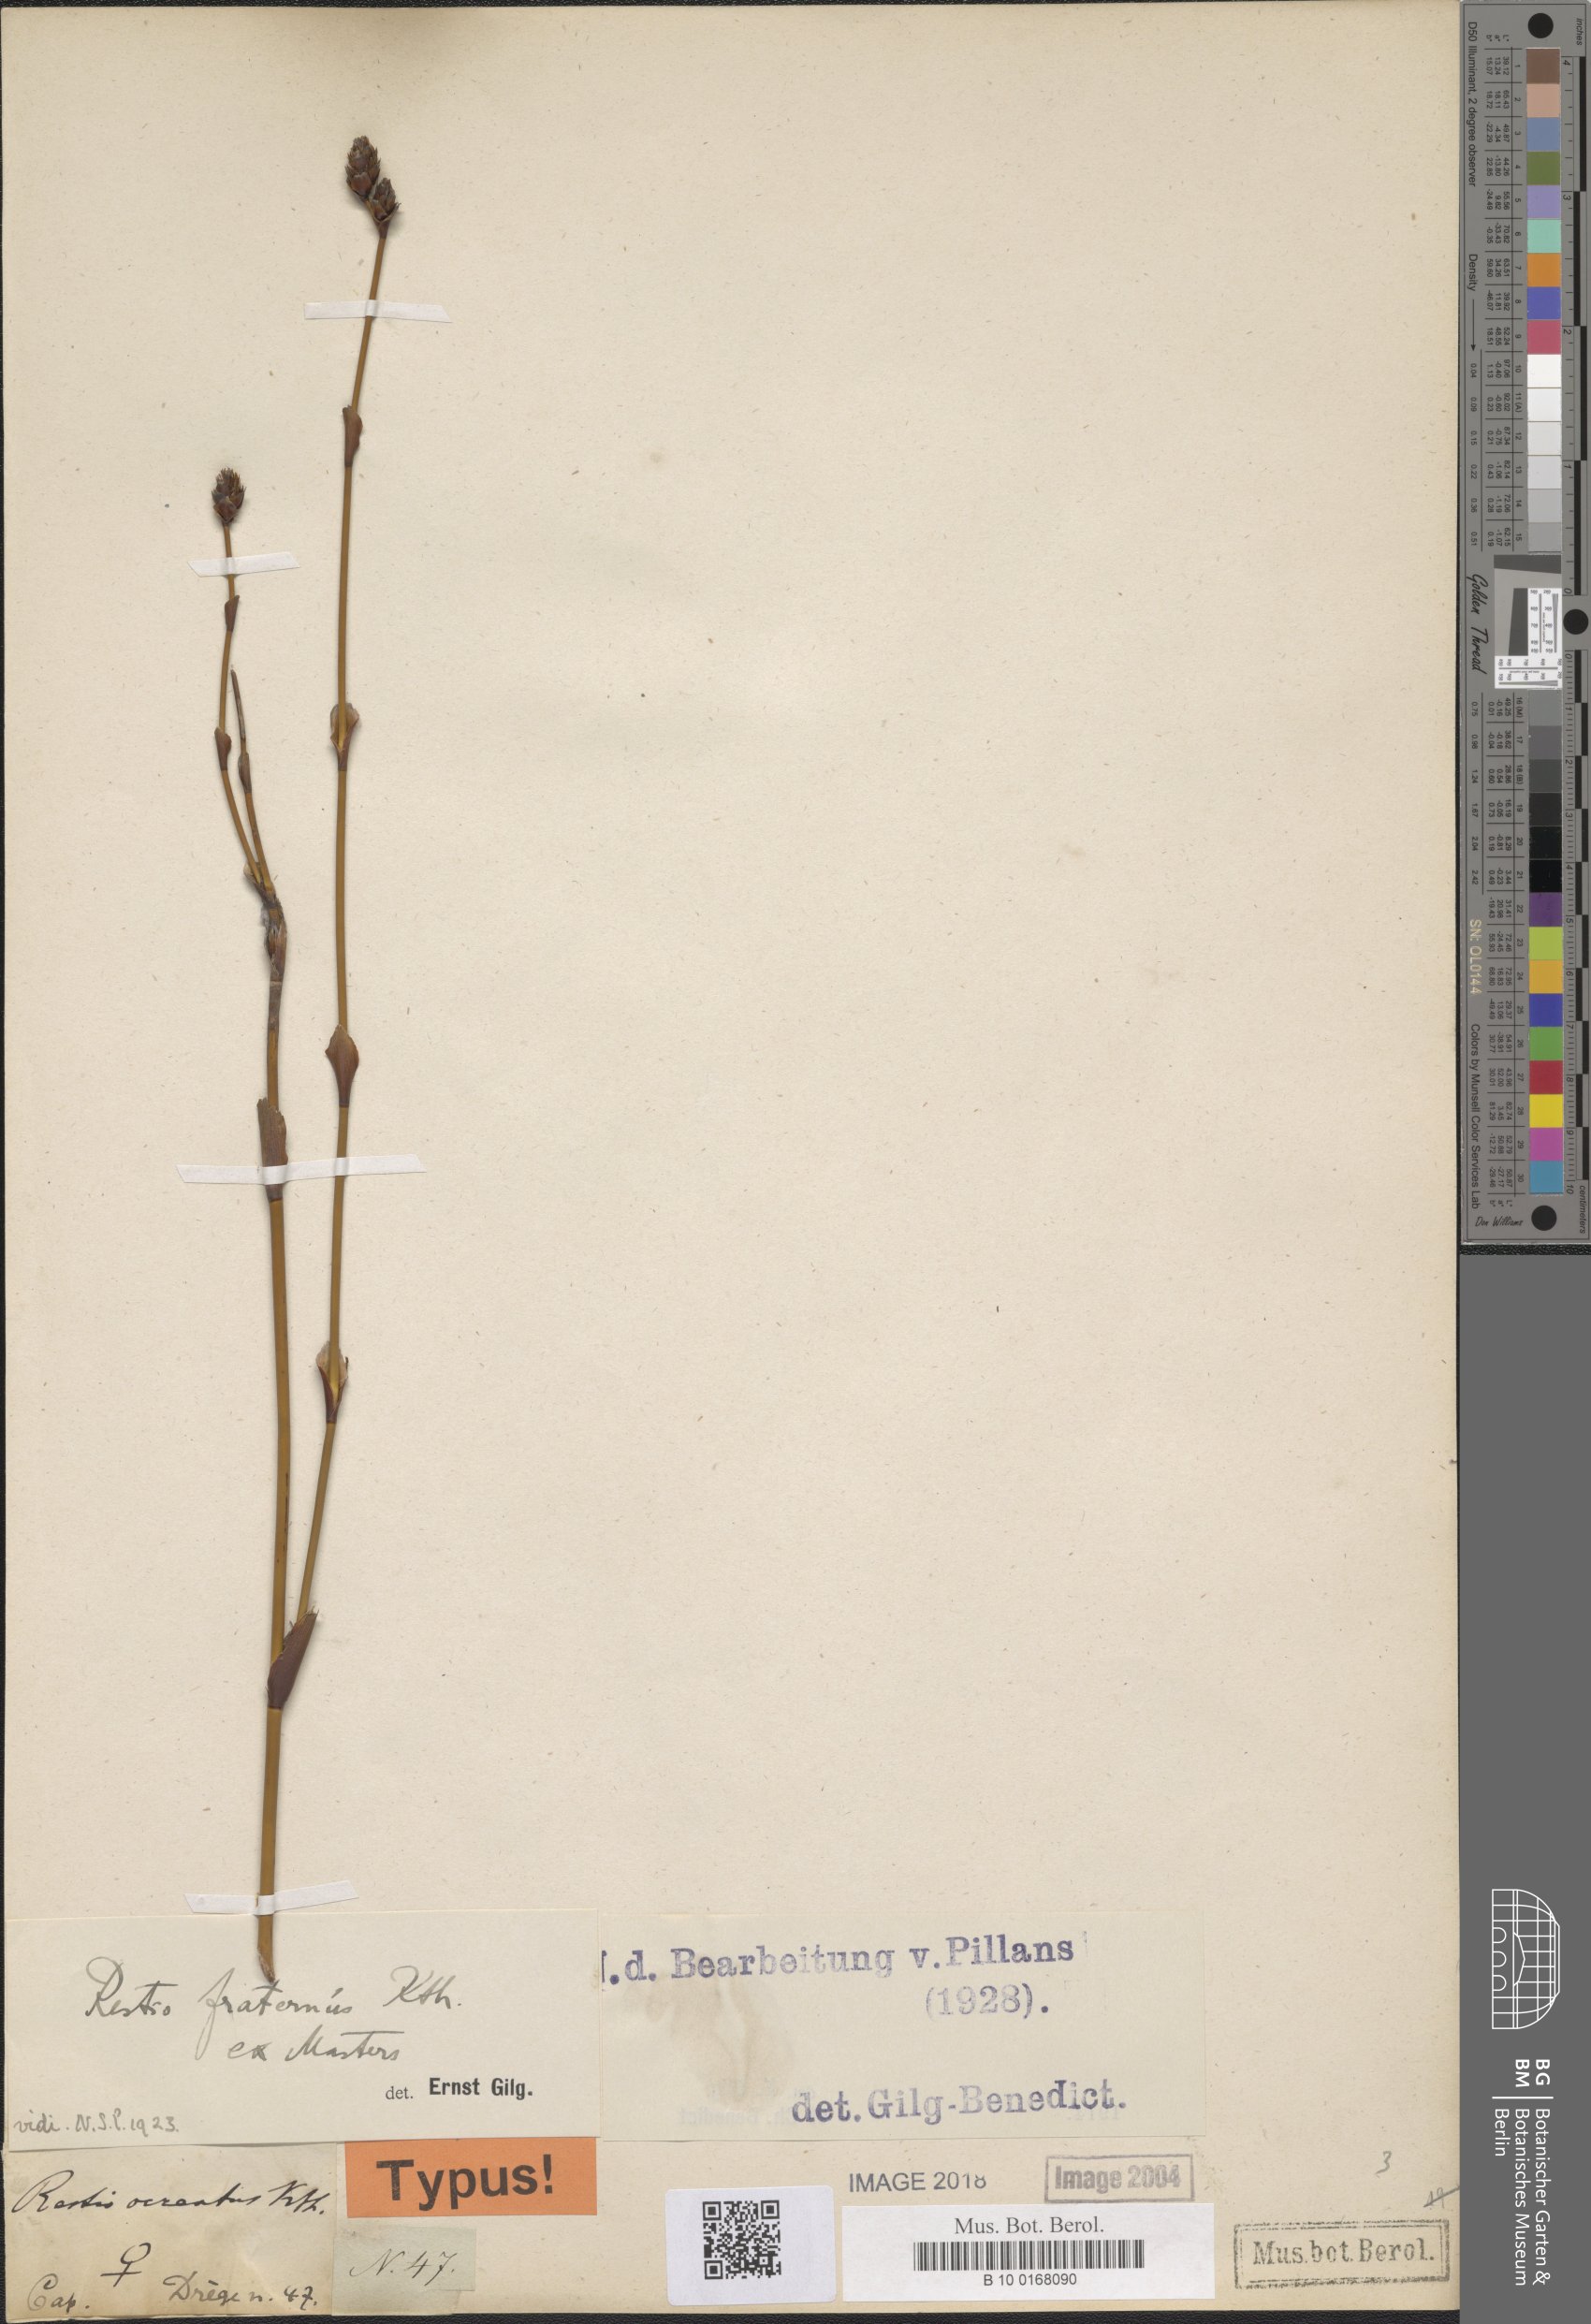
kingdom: Plantae
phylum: Tracheophyta
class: Liliopsida
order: Poales
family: Restionaceae
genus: Restio
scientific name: Restio fraternus
